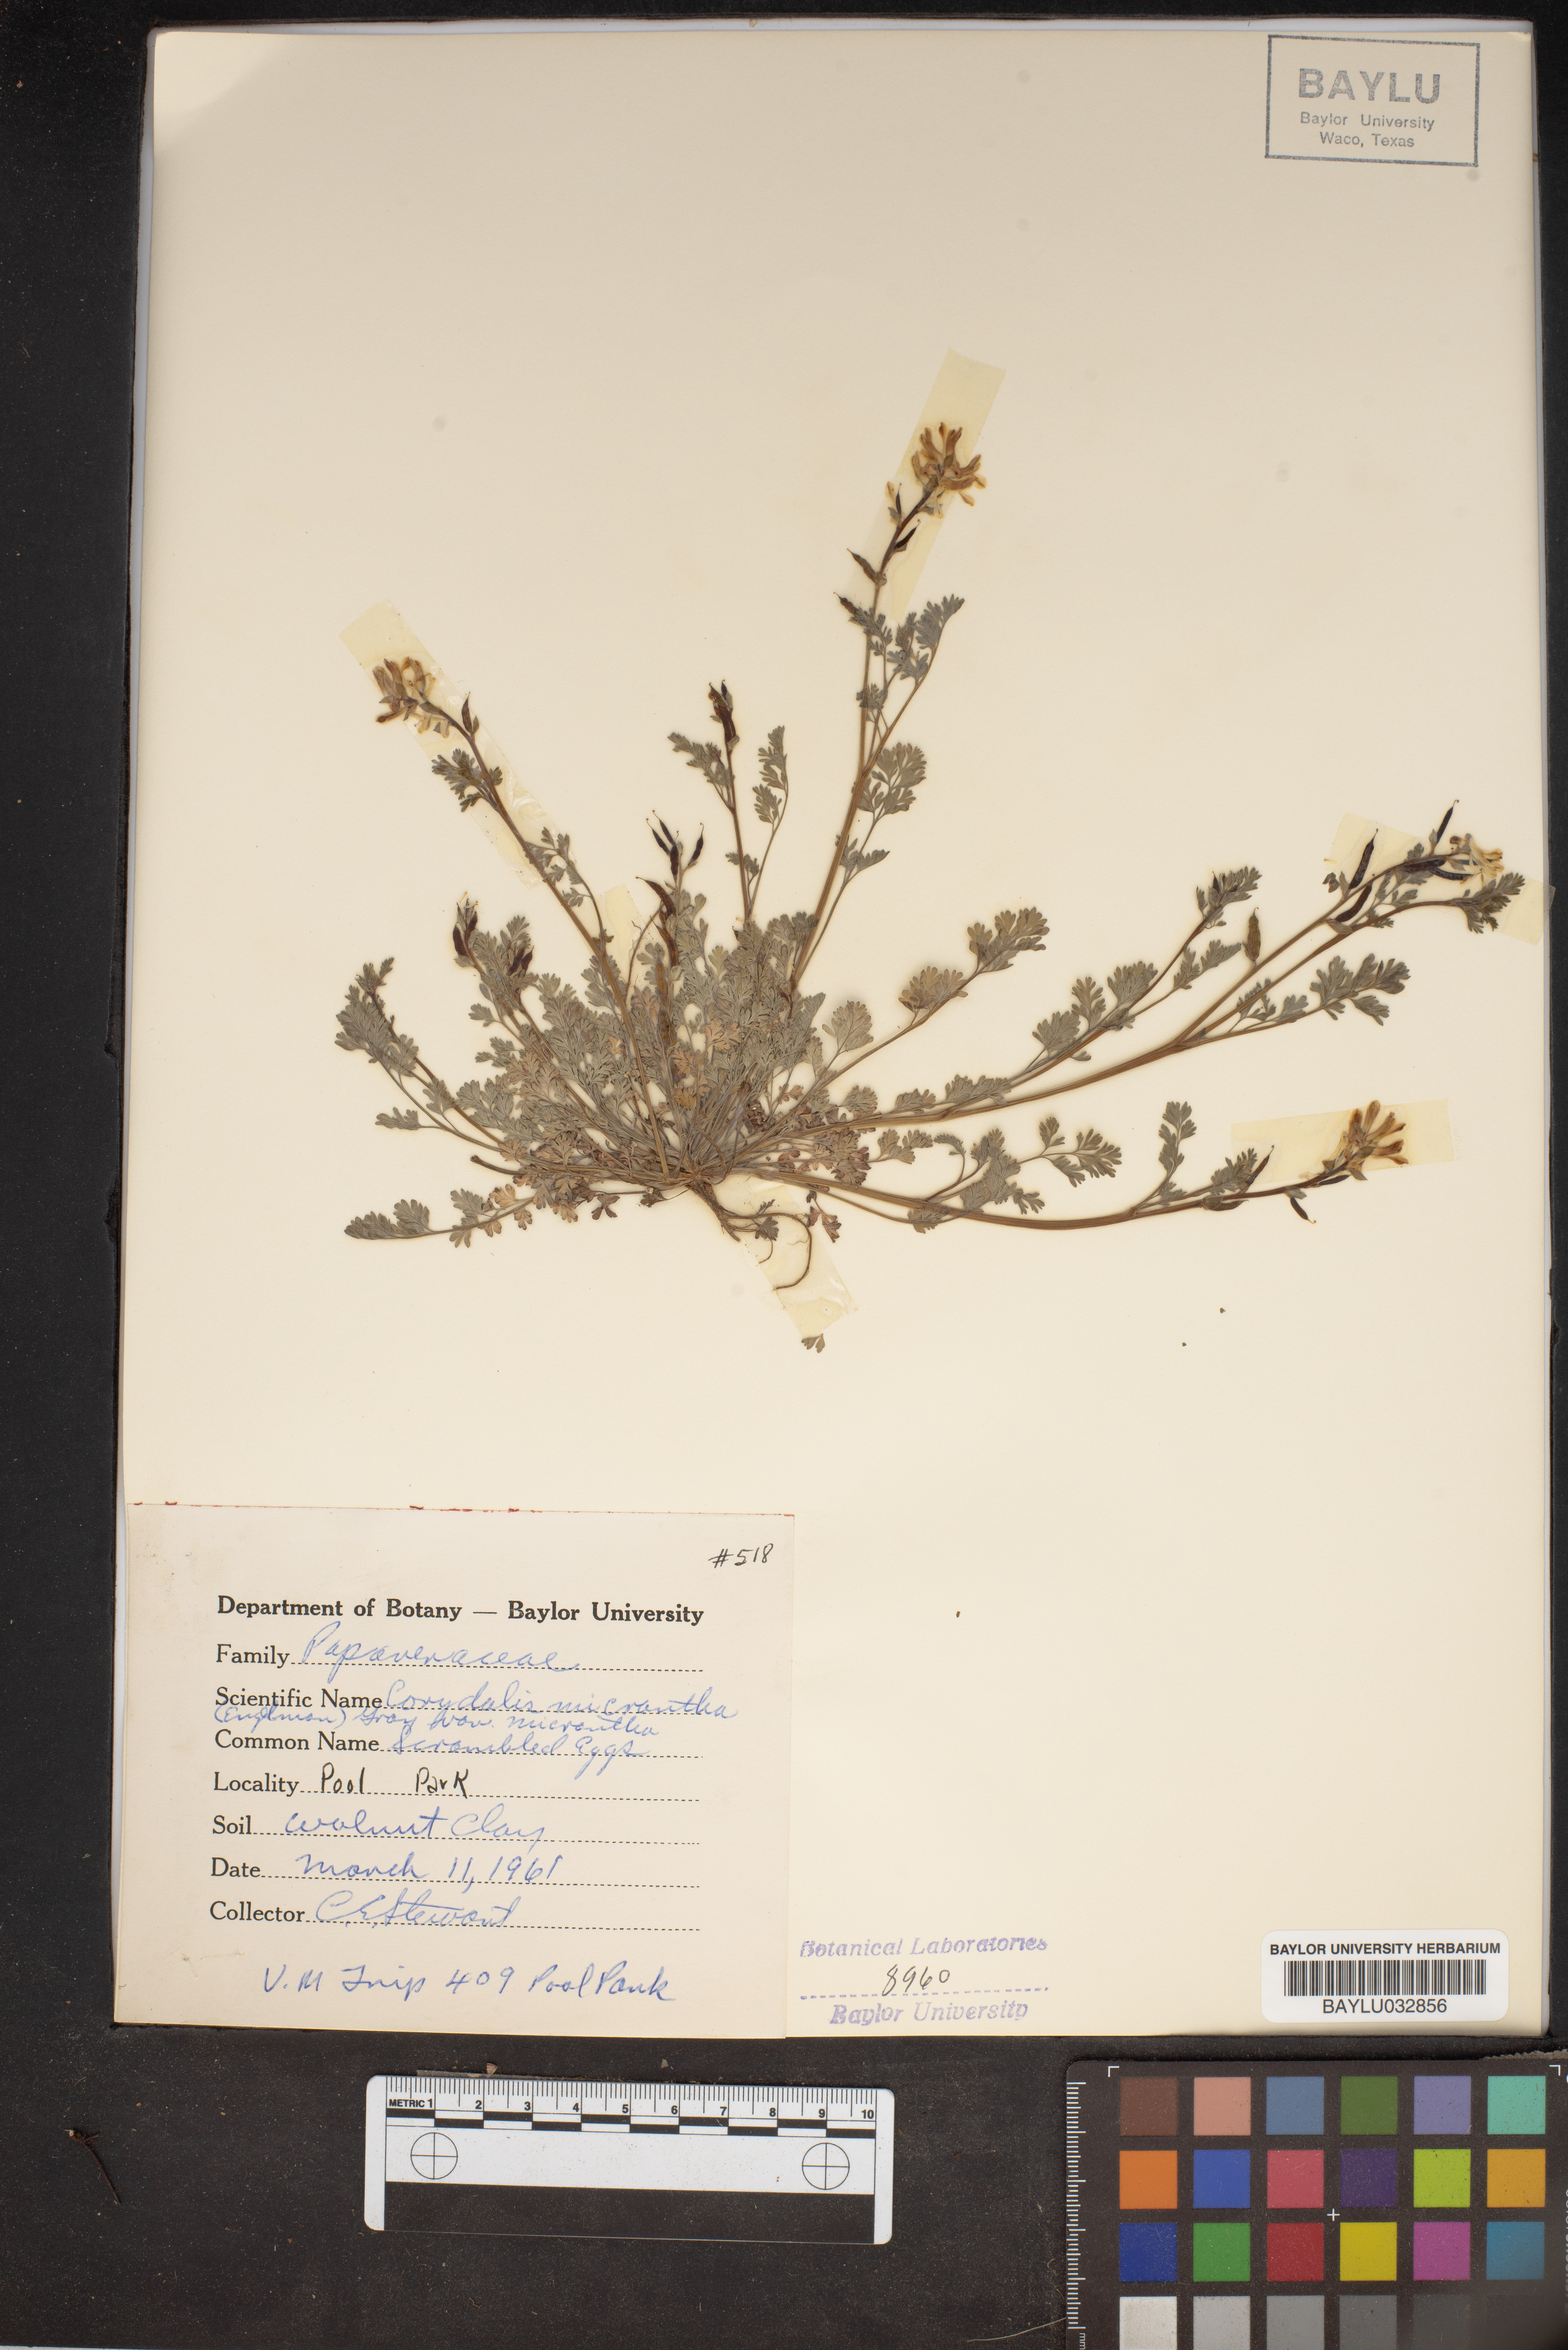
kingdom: Plantae
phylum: Tracheophyta
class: Magnoliopsida
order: Ranunculales
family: Papaveraceae
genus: Corydalis
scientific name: Corydalis micrantha
